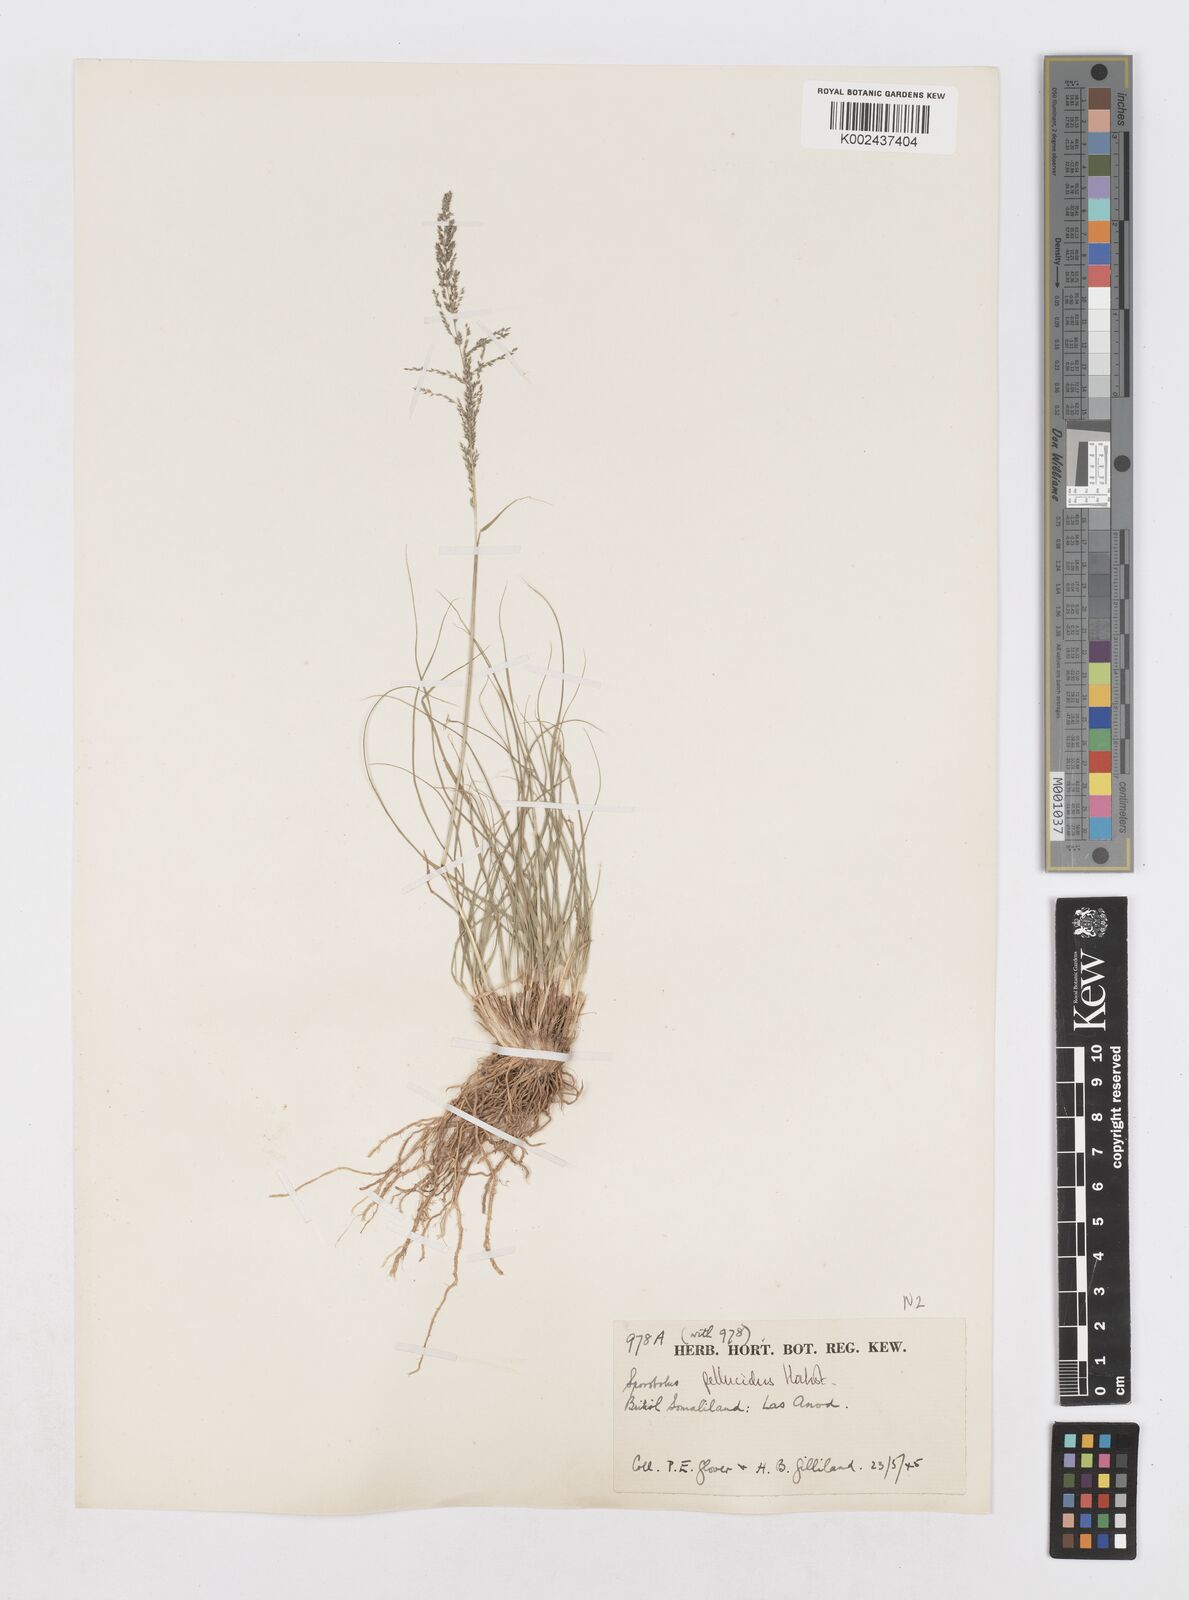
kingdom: Plantae
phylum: Tracheophyta
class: Liliopsida
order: Poales
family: Poaceae
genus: Sporobolus
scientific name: Sporobolus pellucidus
